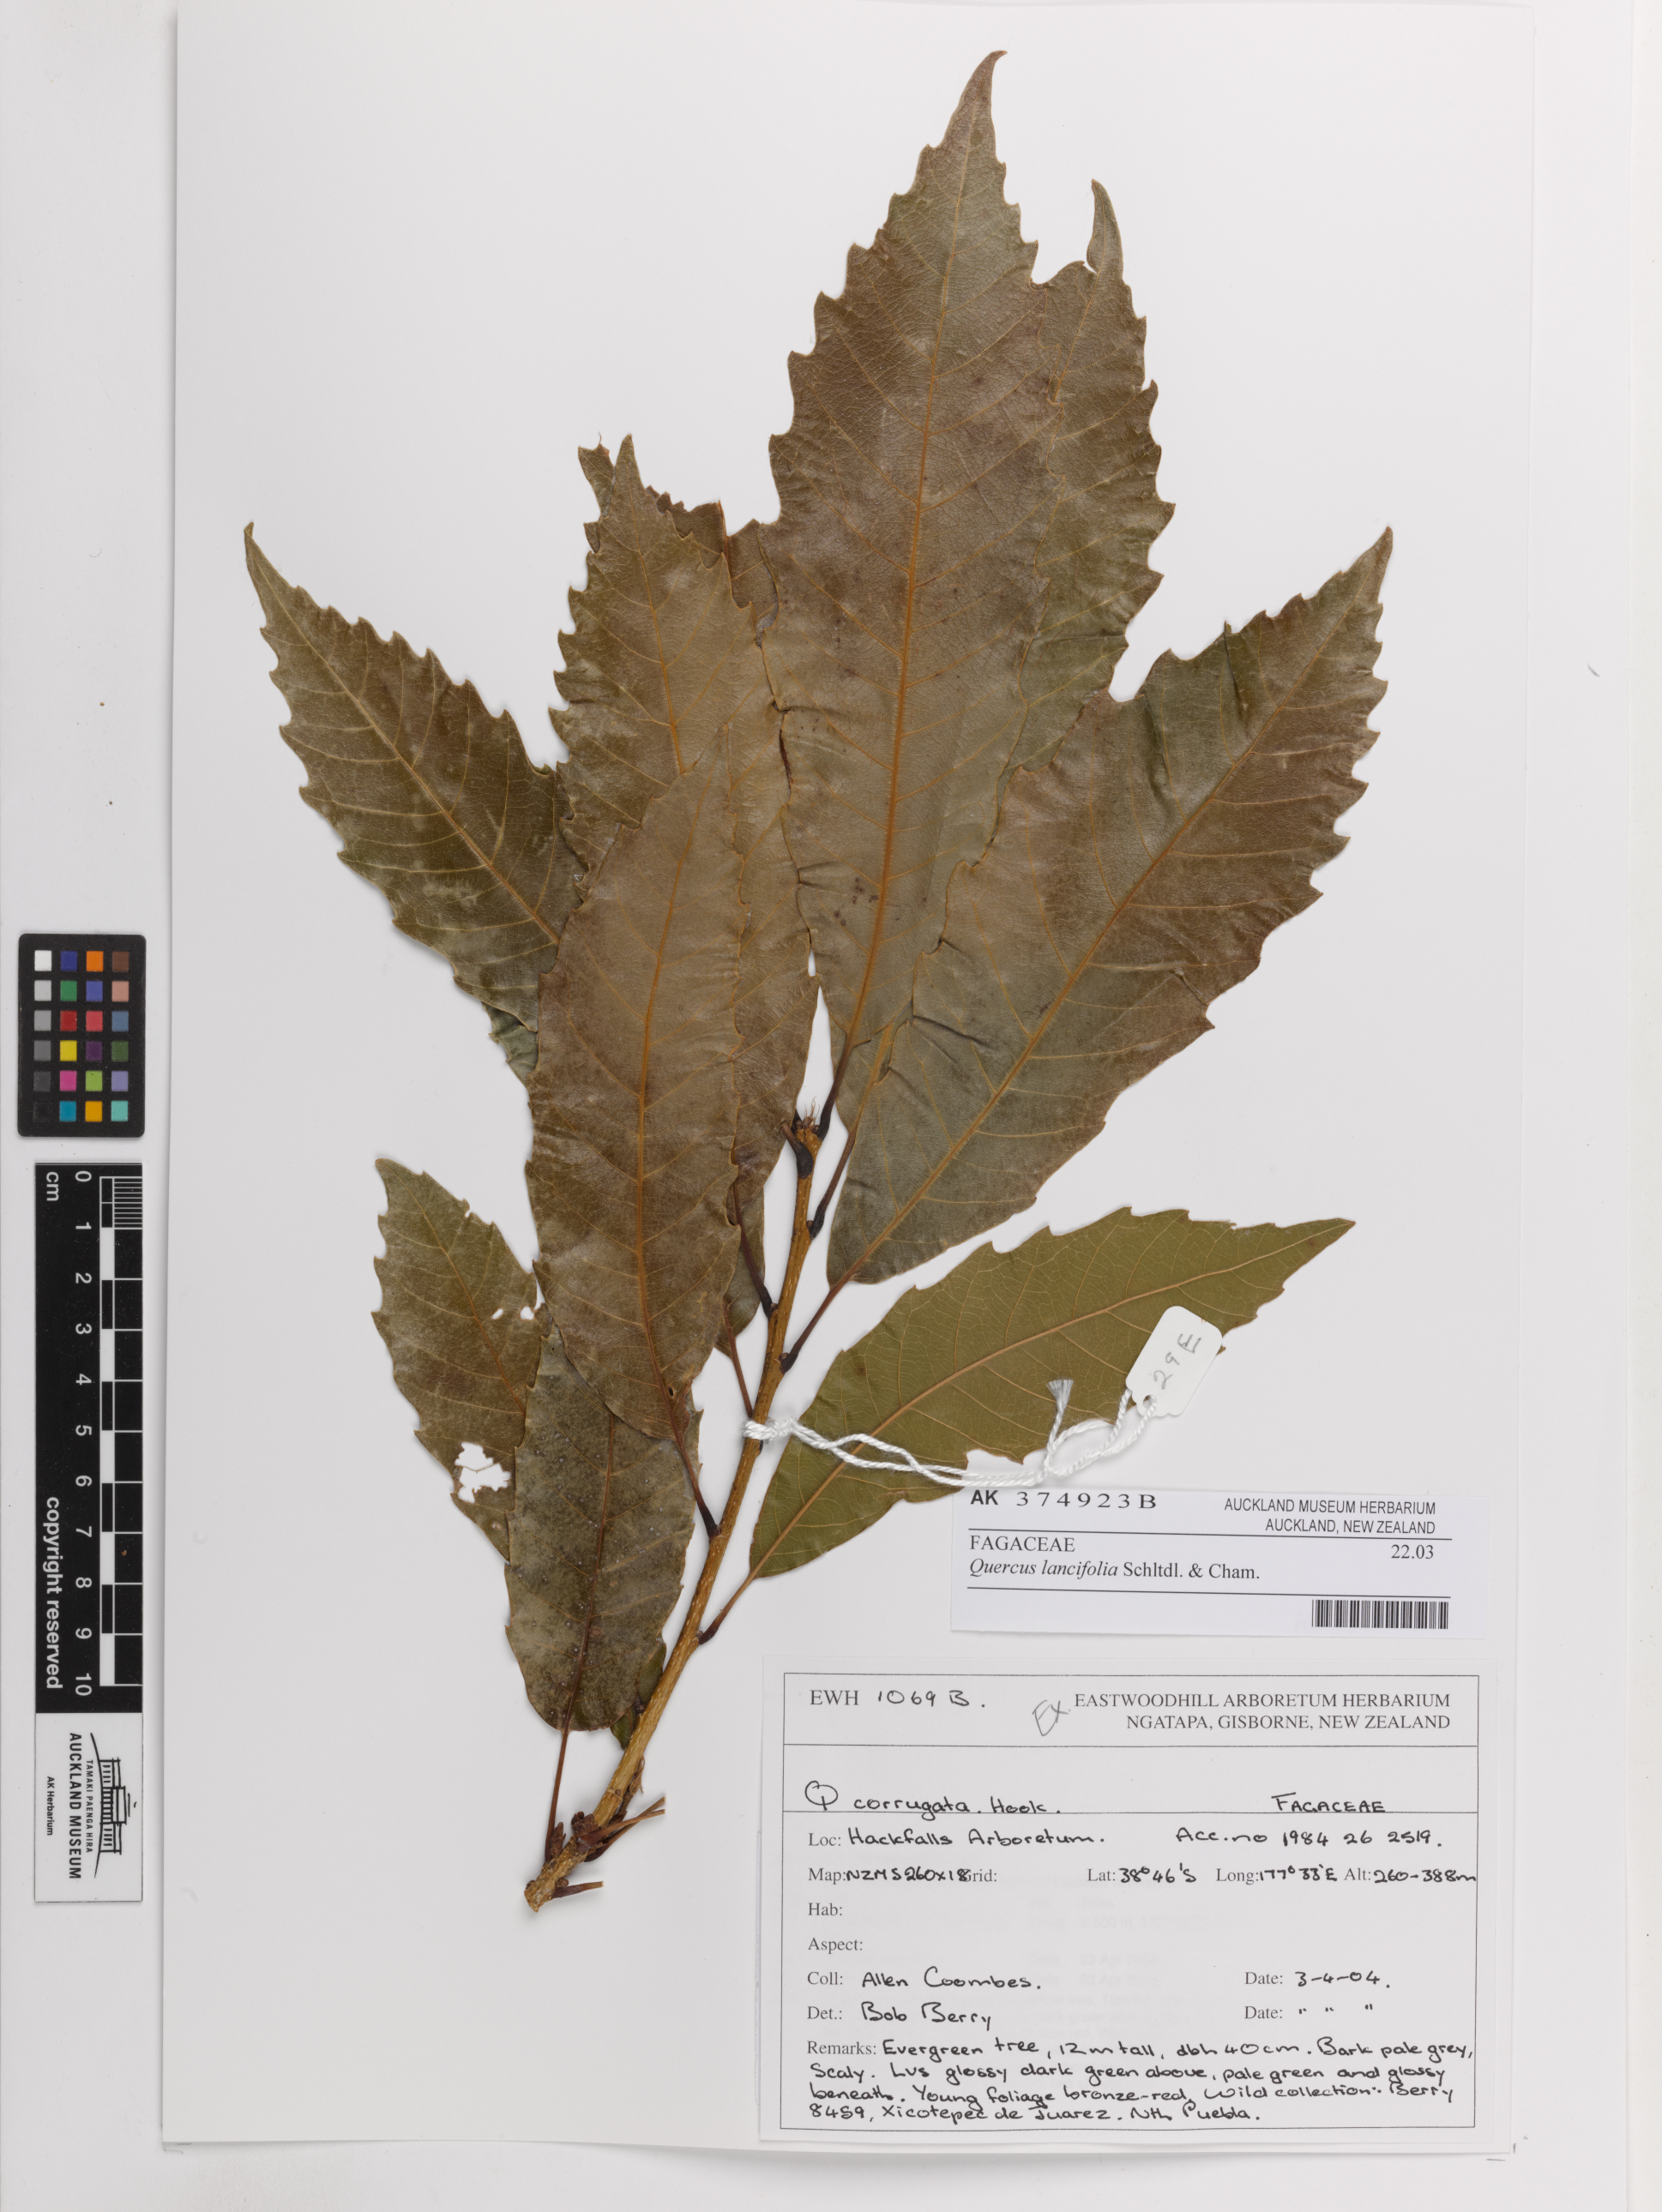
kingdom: Plantae
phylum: Tracheophyta
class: Magnoliopsida
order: Fagales
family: Fagaceae
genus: Quercus
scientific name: Quercus lancifolia
